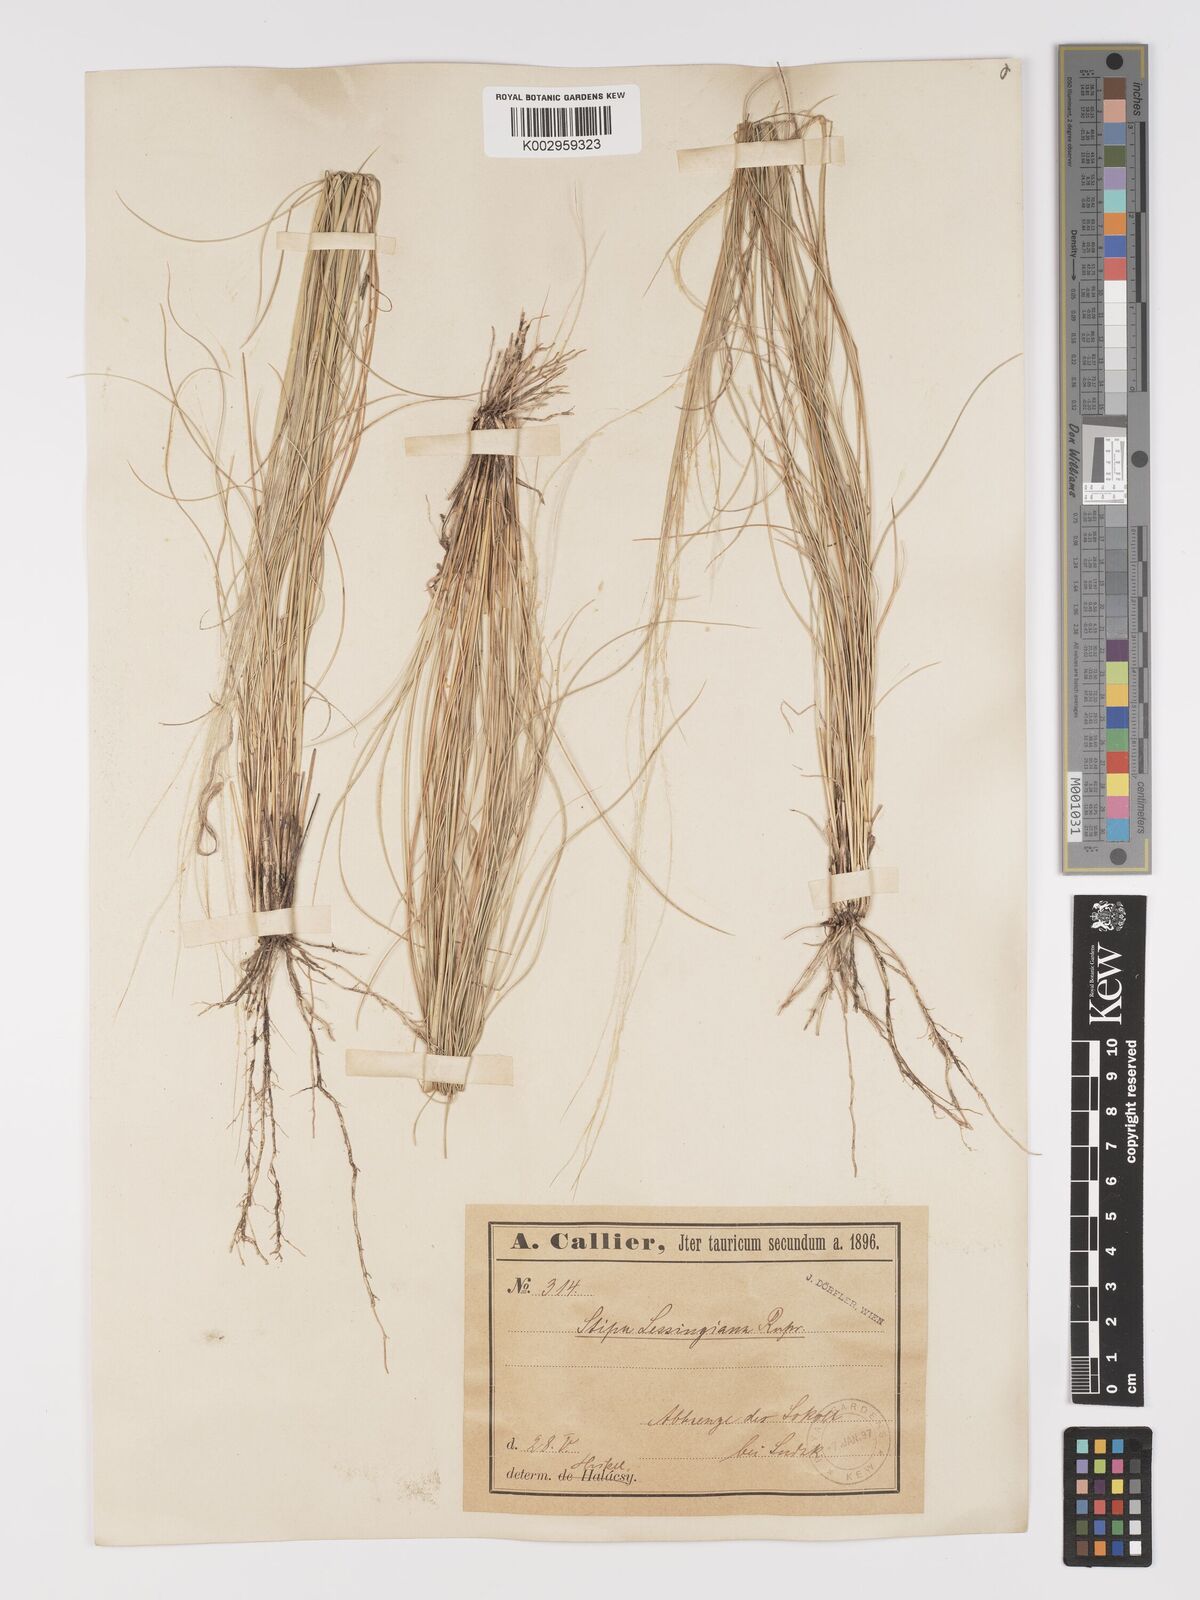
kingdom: Plantae
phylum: Tracheophyta
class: Liliopsida
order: Poales
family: Poaceae
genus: Stipa
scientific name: Stipa lessingiana
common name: Needle grass
